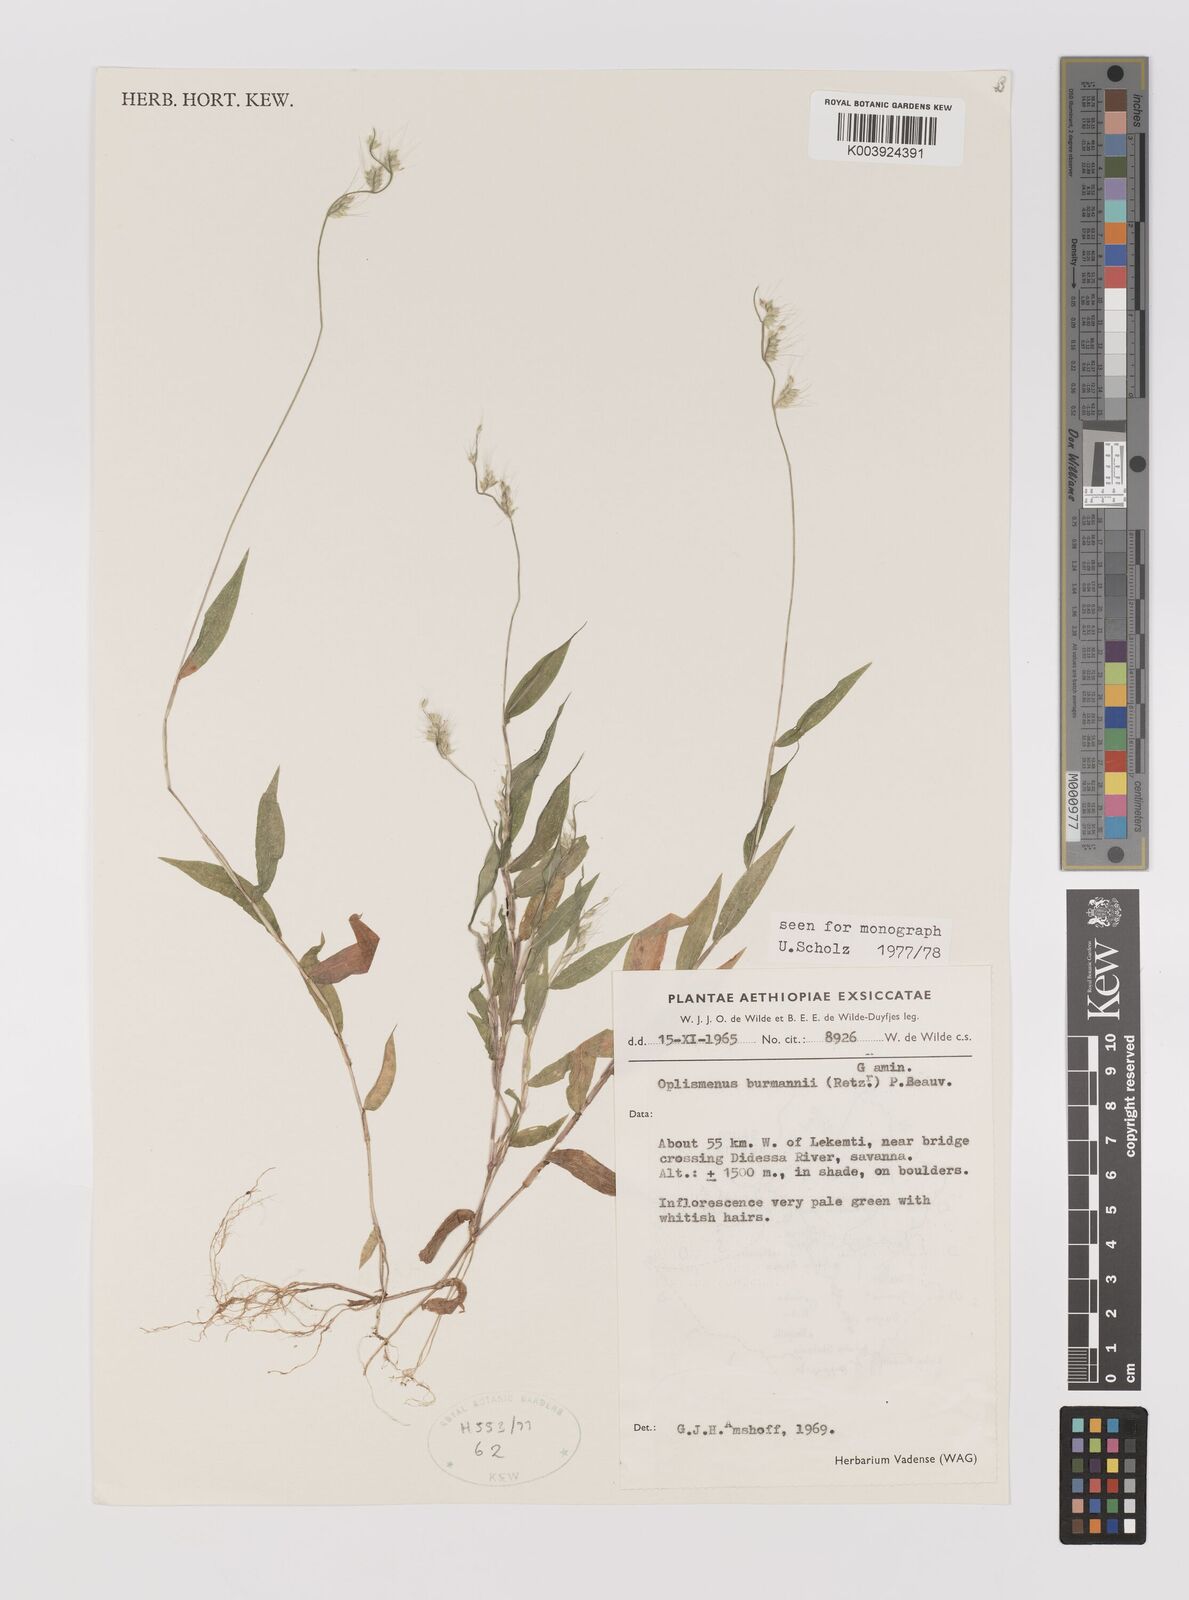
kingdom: Plantae
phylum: Tracheophyta
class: Liliopsida
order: Poales
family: Poaceae
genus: Oplismenus
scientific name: Oplismenus burmanni
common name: Burmann's basketgrass
